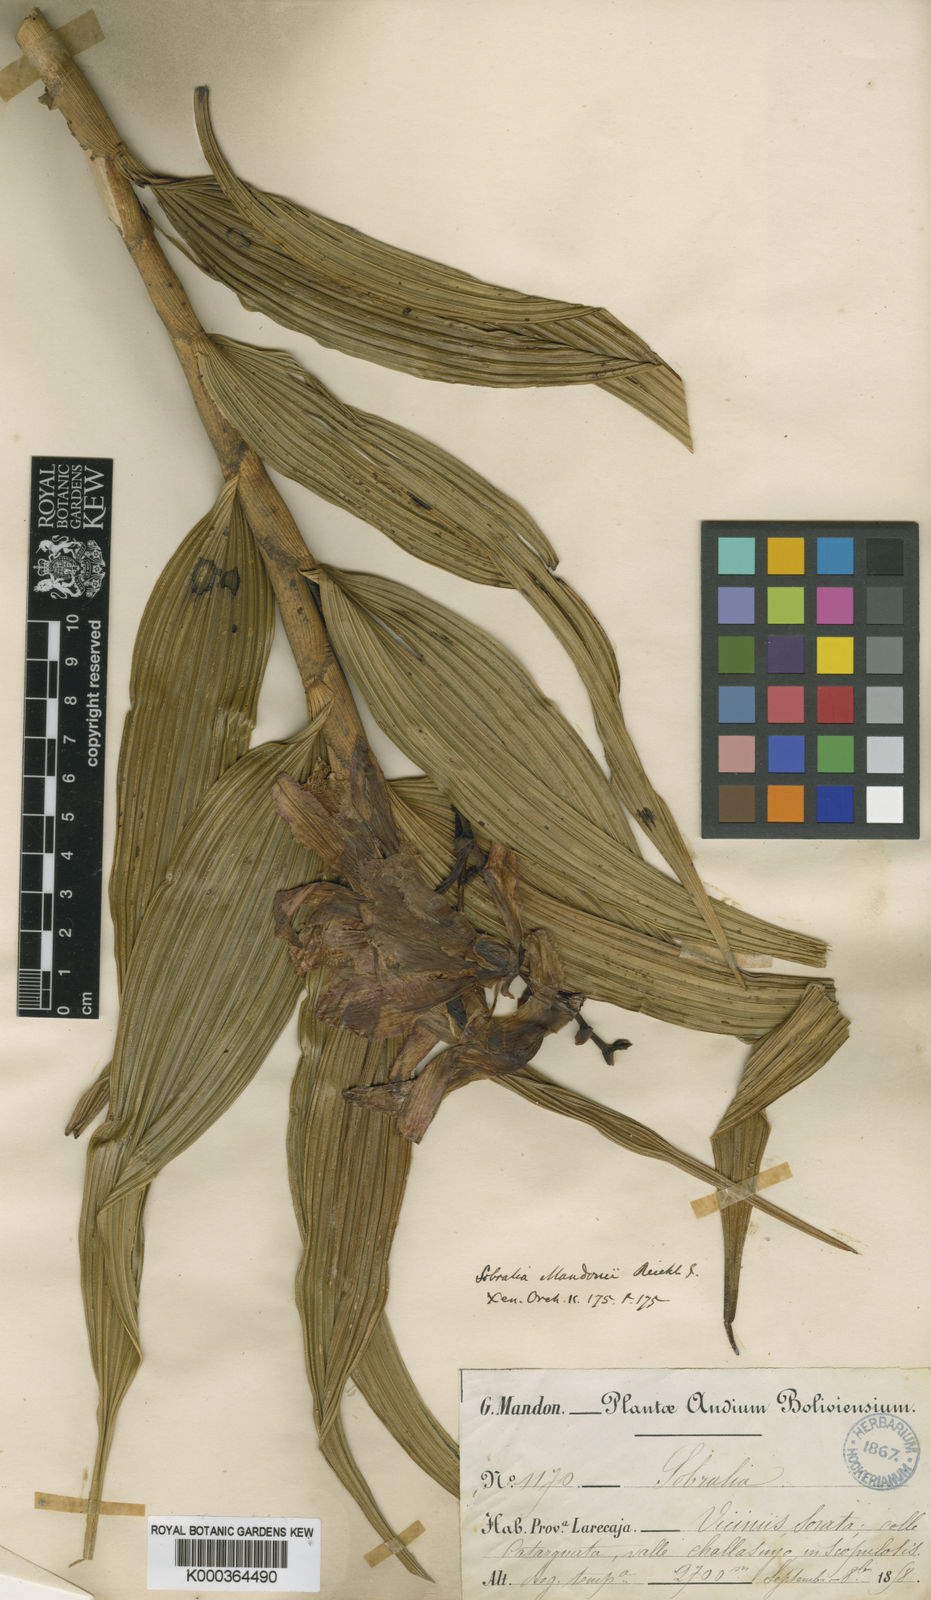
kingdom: Plantae
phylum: Tracheophyta
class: Liliopsida
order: Asparagales
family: Orchidaceae
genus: Sobralia
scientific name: Sobralia dichotoma
